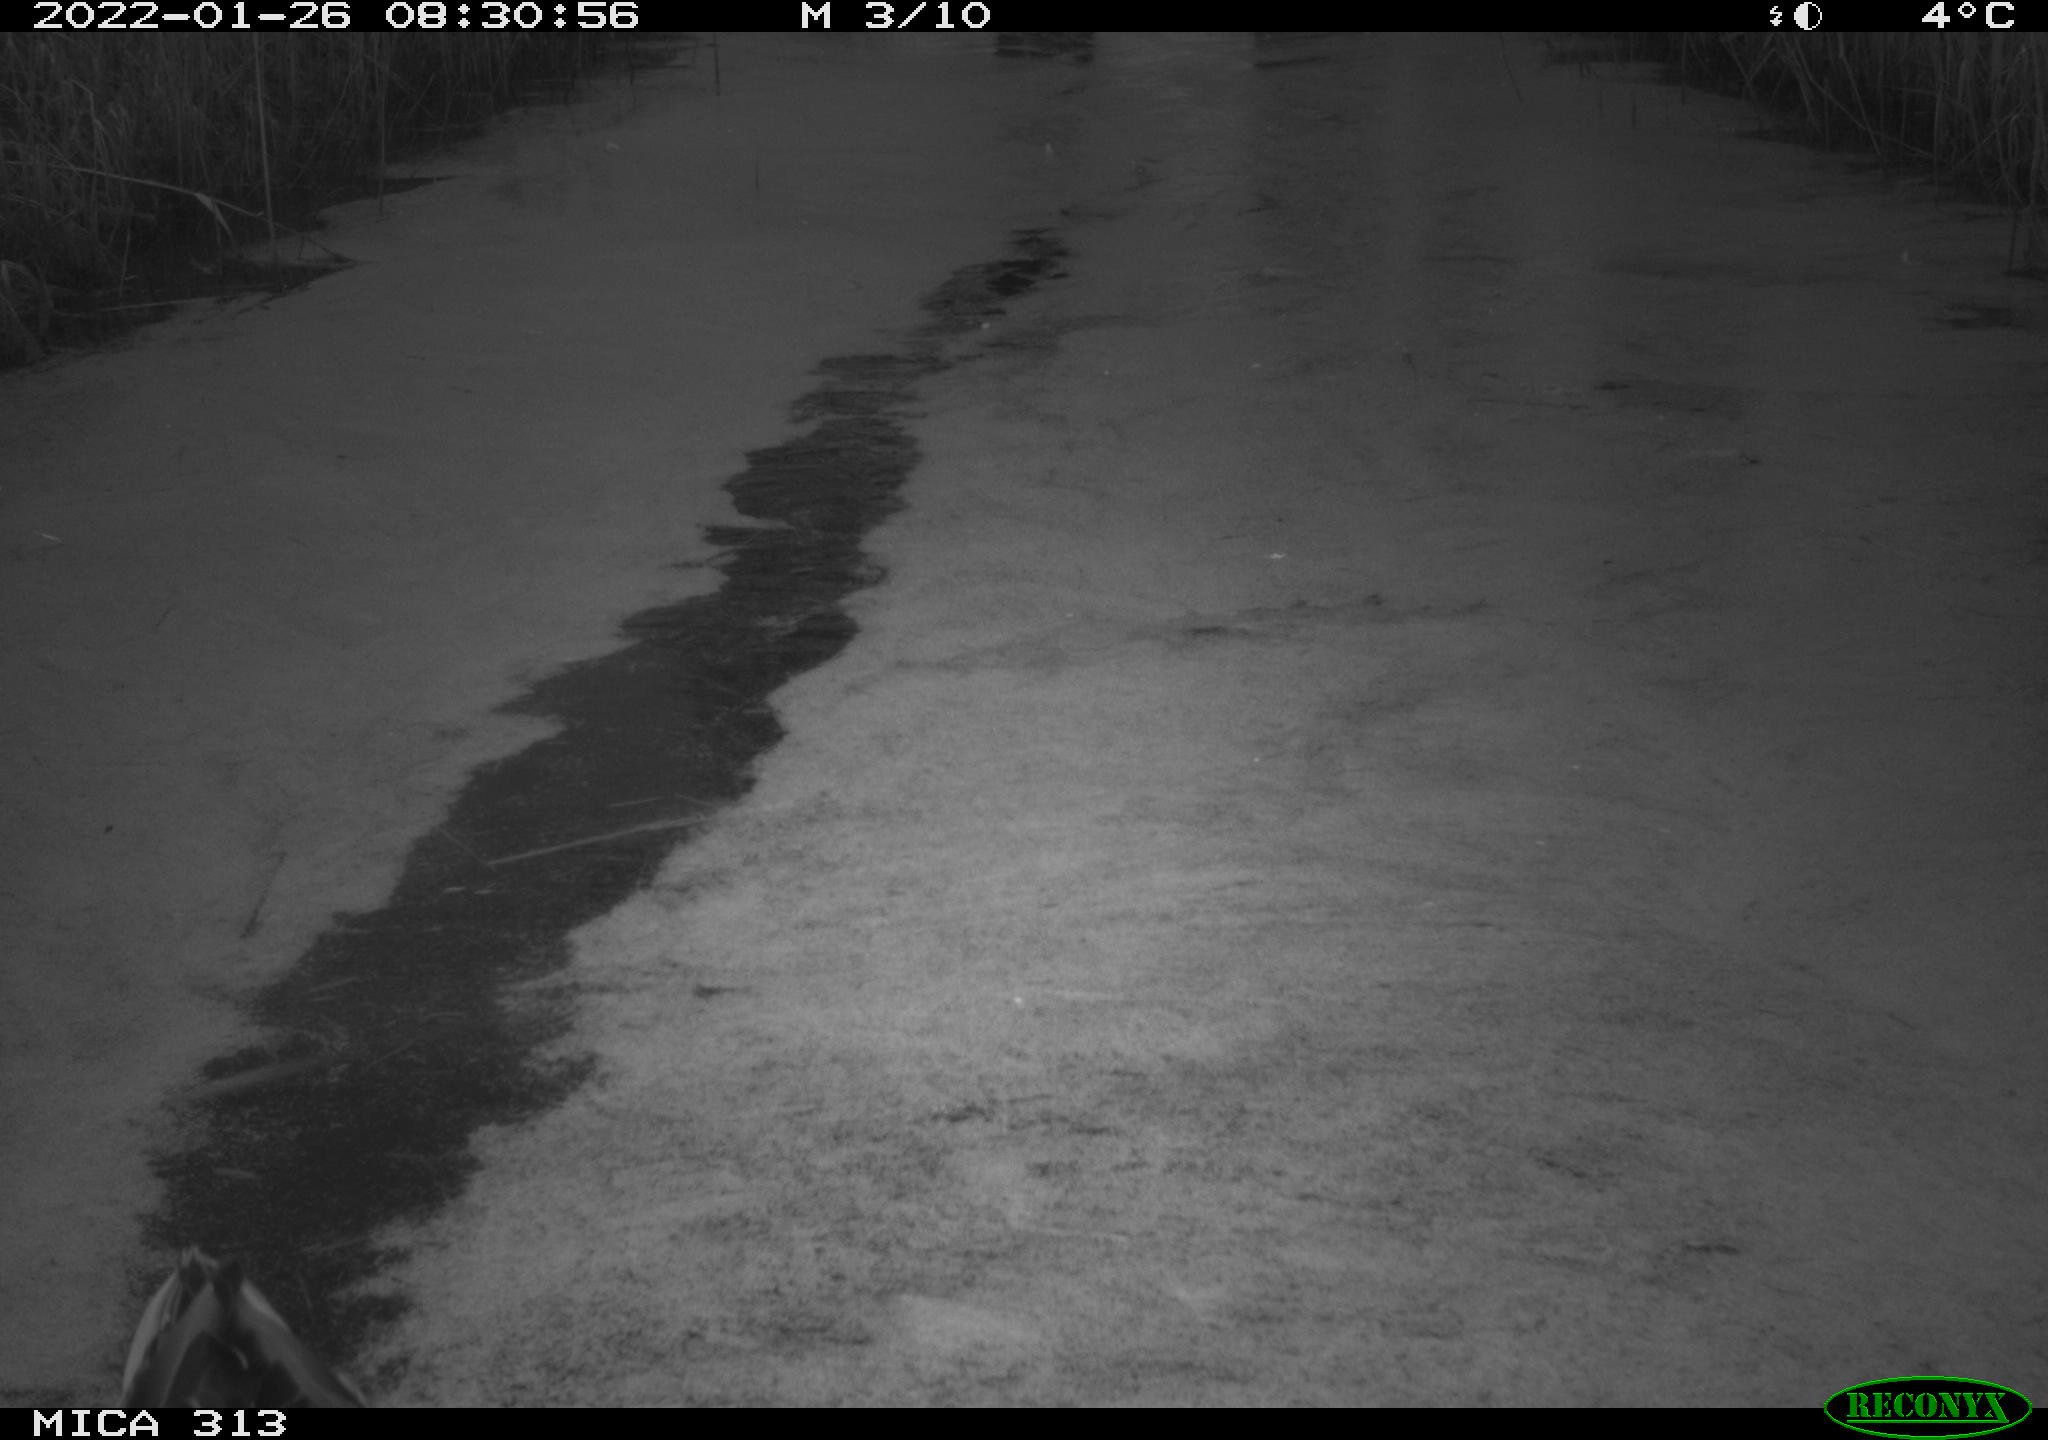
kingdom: Animalia
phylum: Chordata
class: Aves
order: Anseriformes
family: Anatidae
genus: Anas
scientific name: Anas platyrhynchos
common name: Mallard
